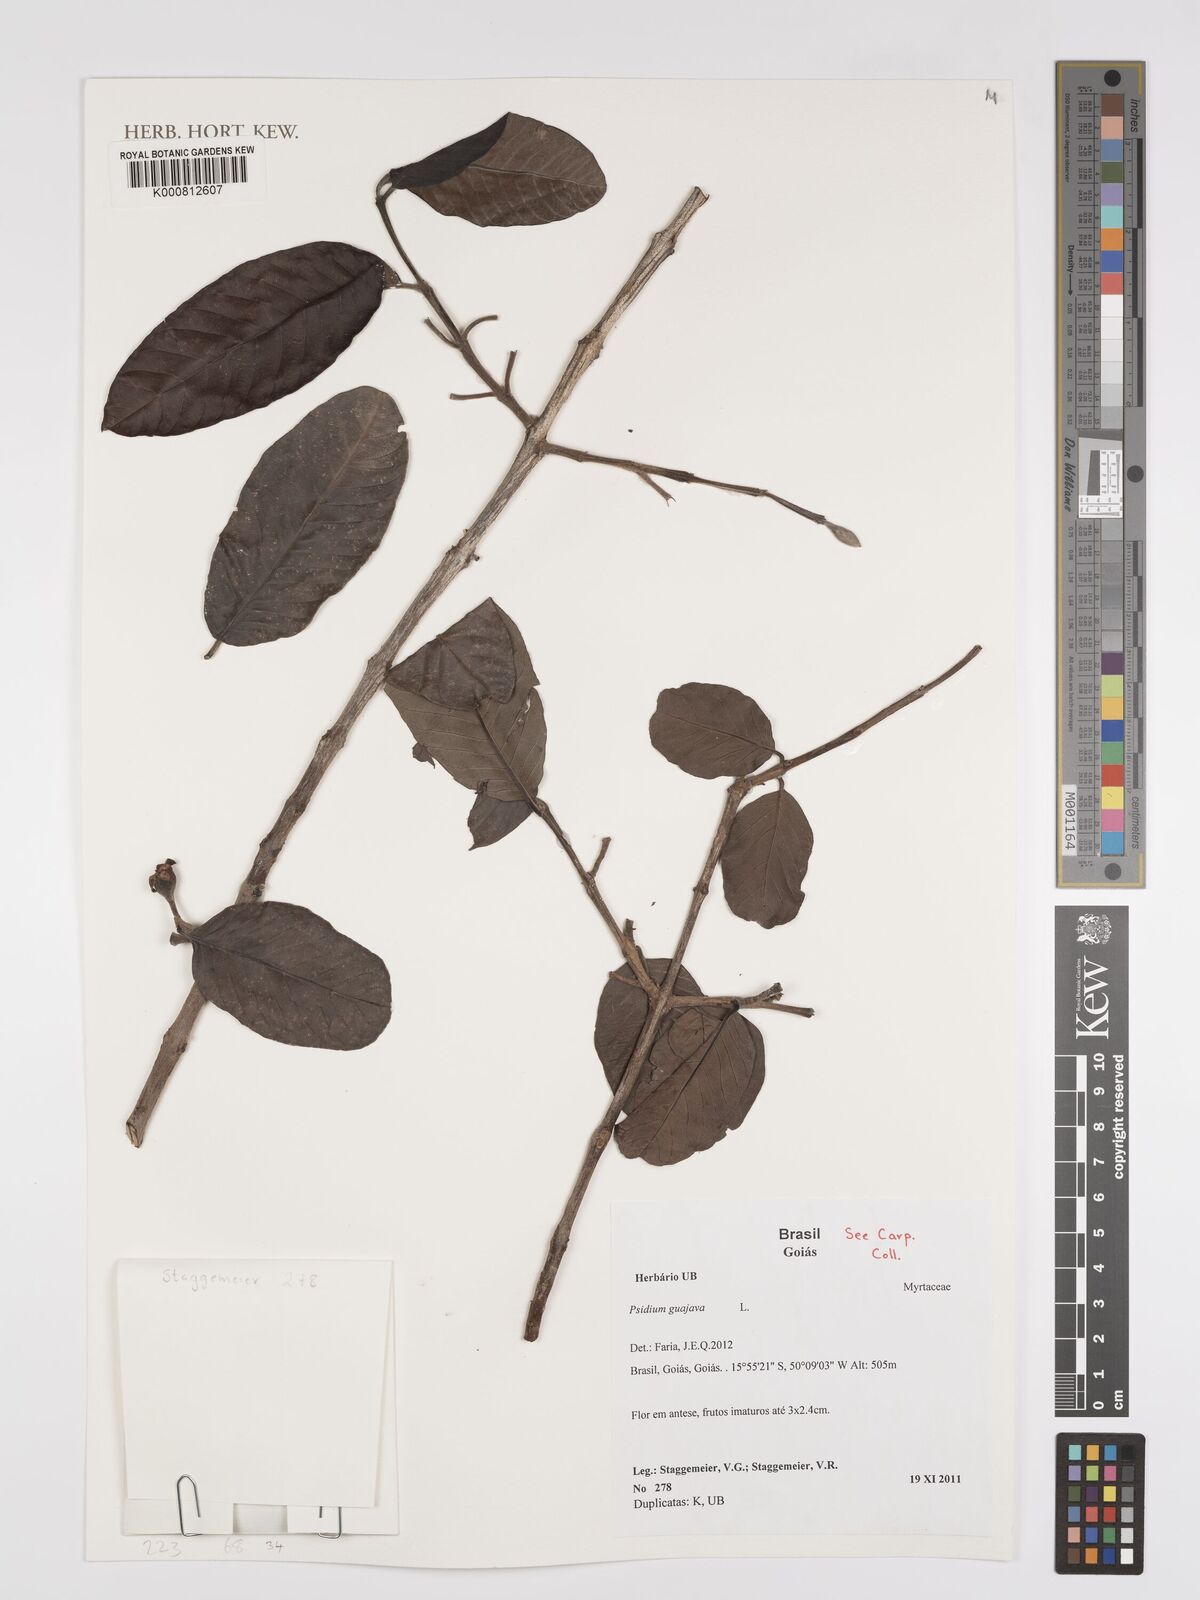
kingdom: Plantae
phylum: Tracheophyta
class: Magnoliopsida
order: Myrtales
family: Myrtaceae
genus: Psidium
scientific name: Psidium guajava
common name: Guava
